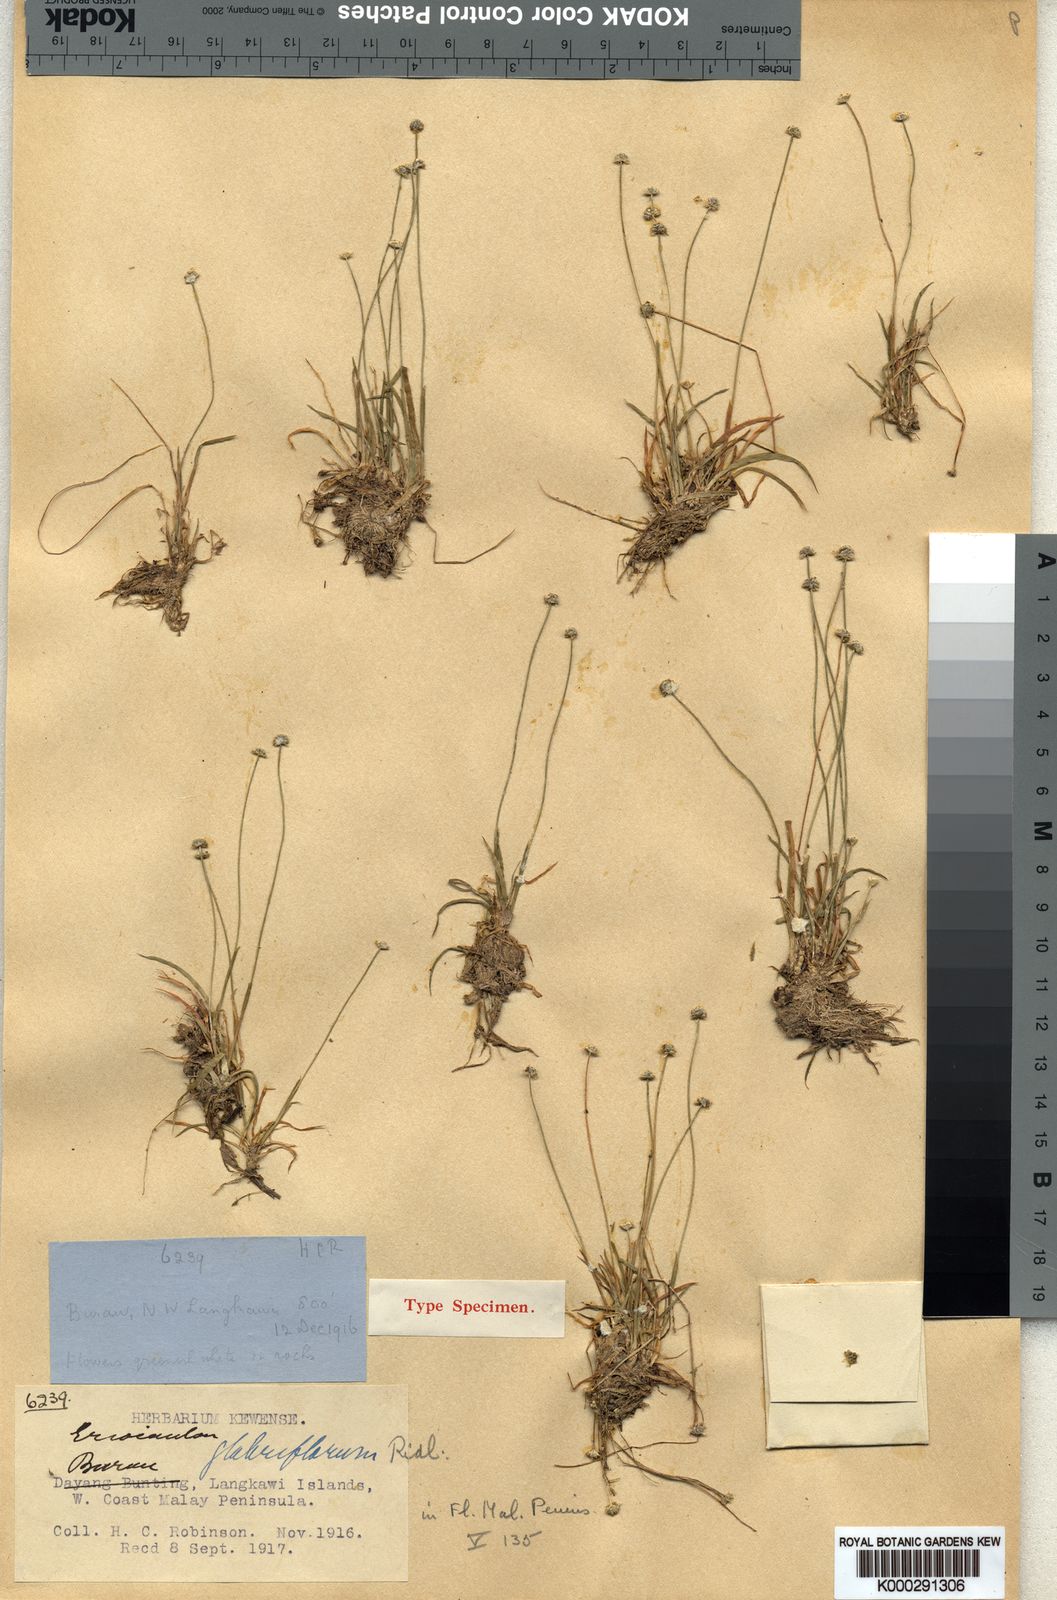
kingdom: Plantae
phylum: Tracheophyta
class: Liliopsida
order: Poales
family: Eriocaulaceae
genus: Eriocaulon
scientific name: Eriocaulon truncatum
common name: Short pipe-wort
